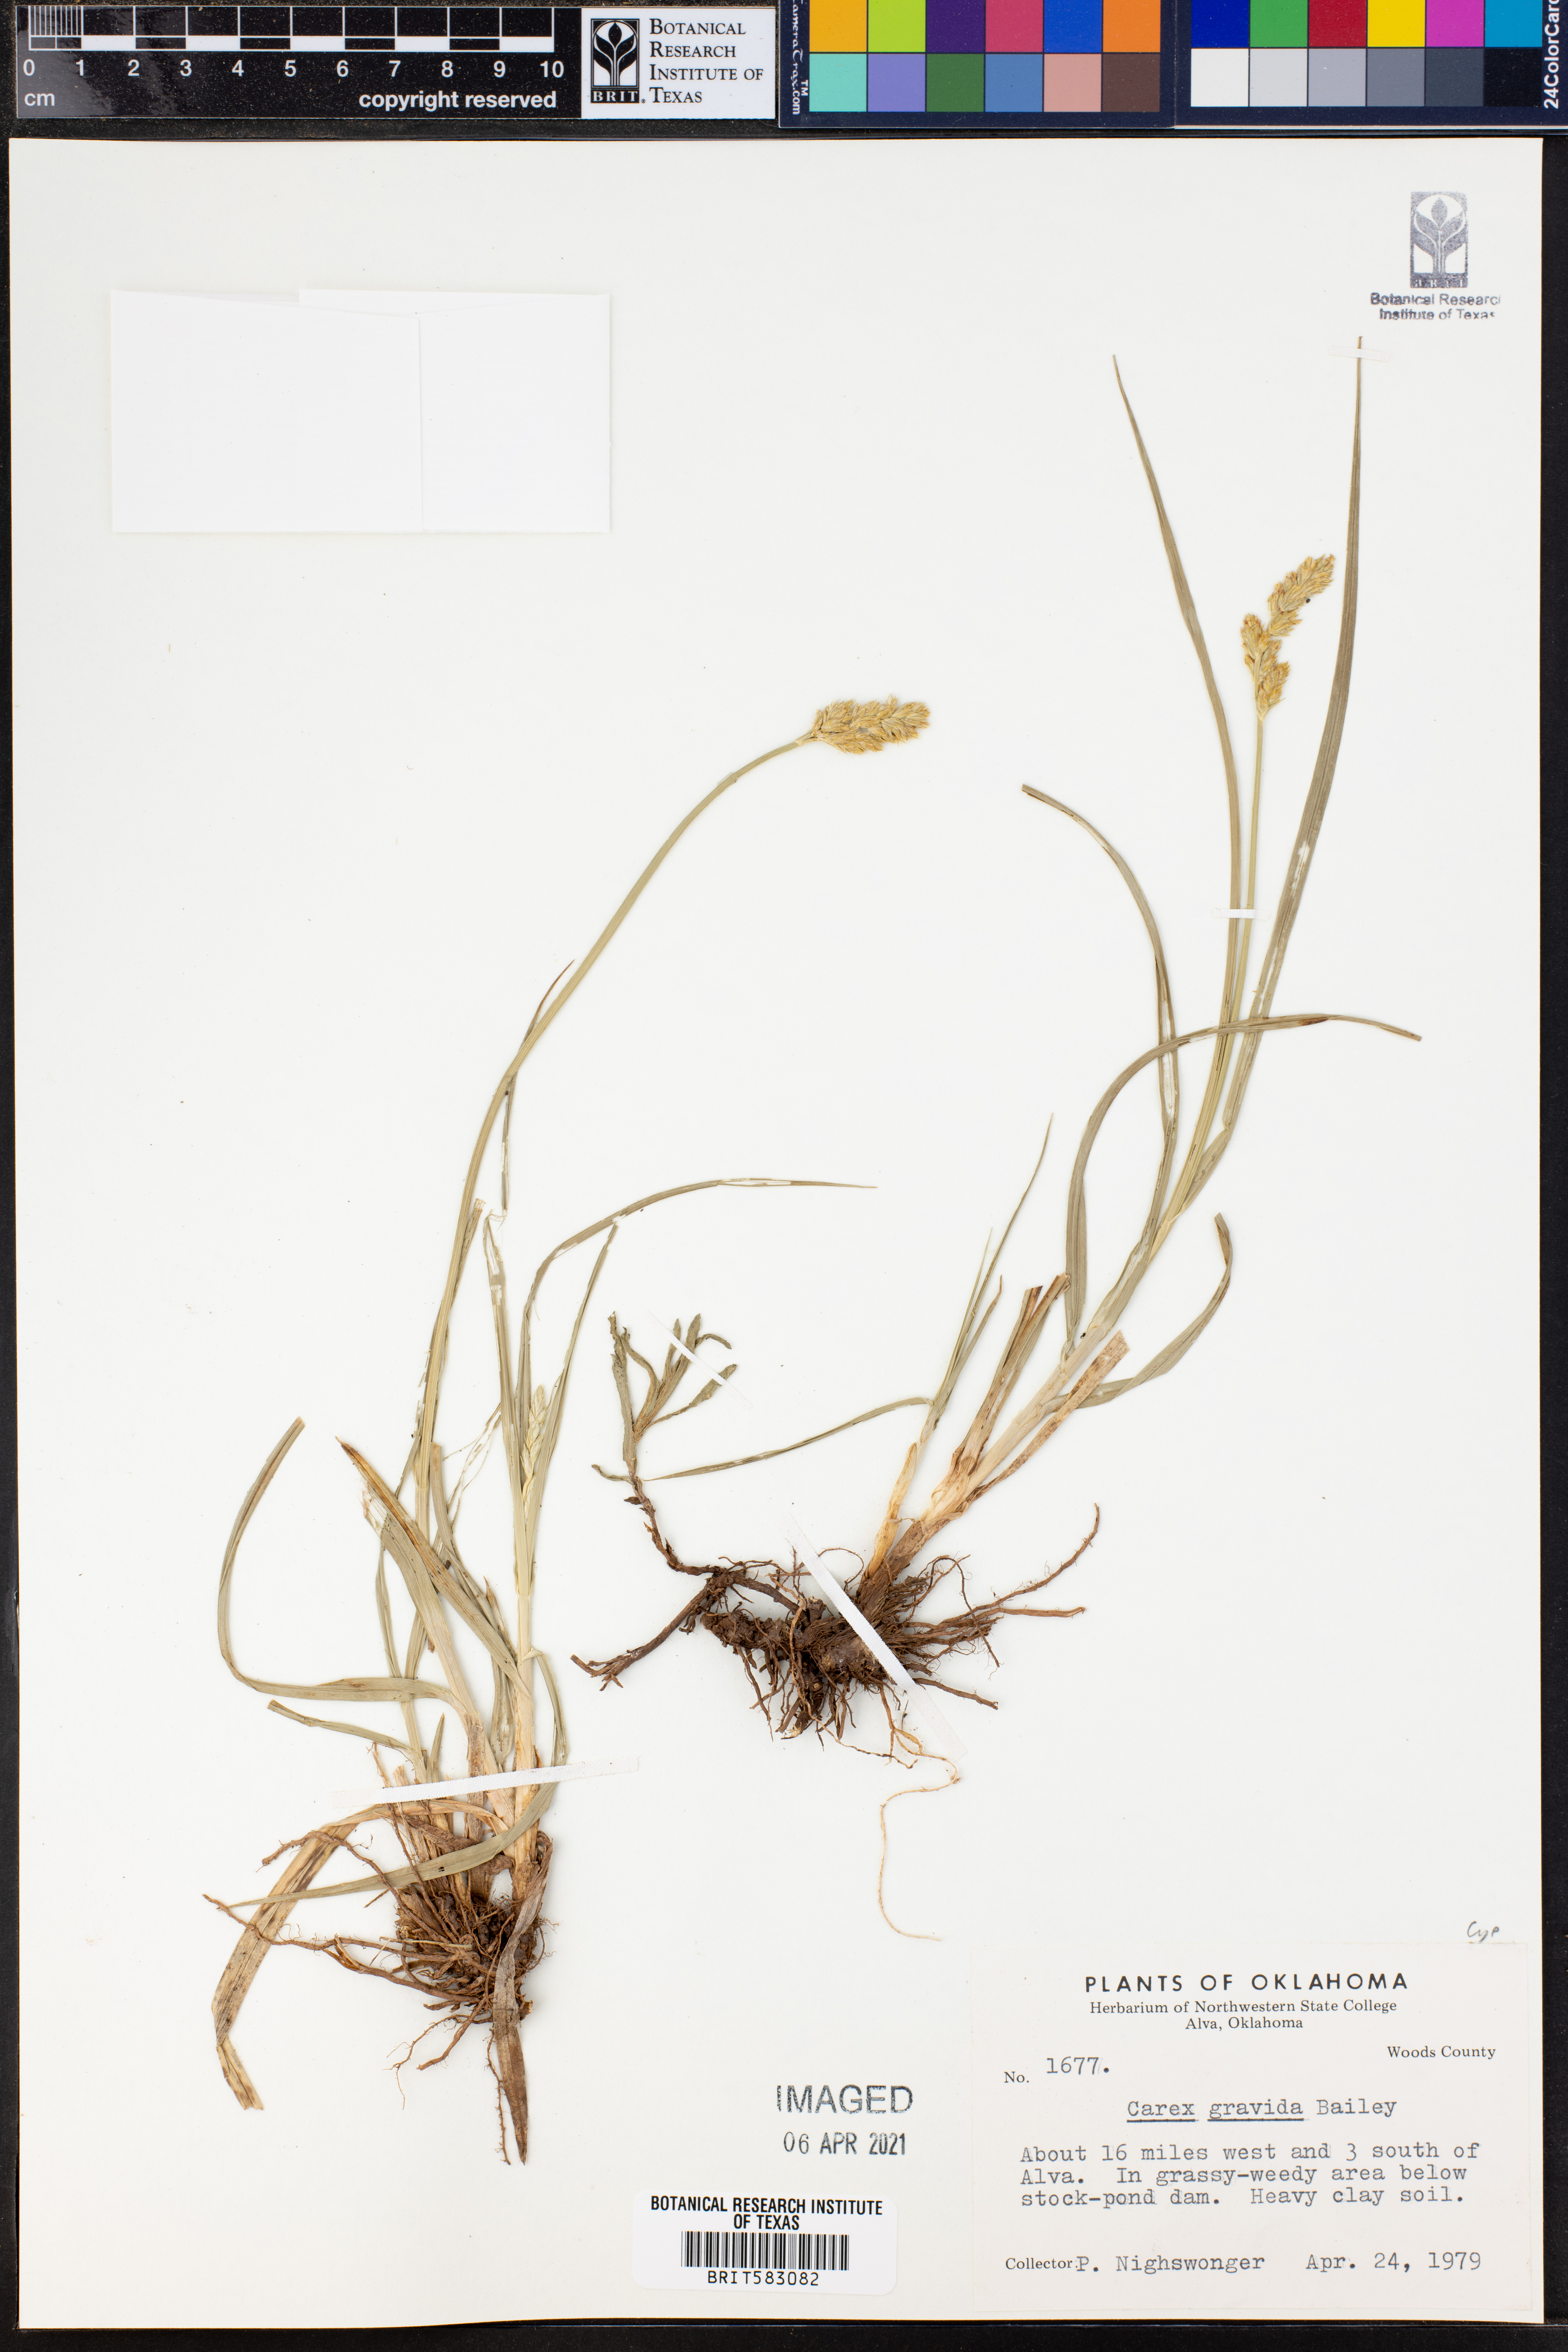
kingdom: Plantae
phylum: Tracheophyta
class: Liliopsida
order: Poales
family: Cyperaceae
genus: Carex
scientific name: Carex gravida
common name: Heavy sedge
